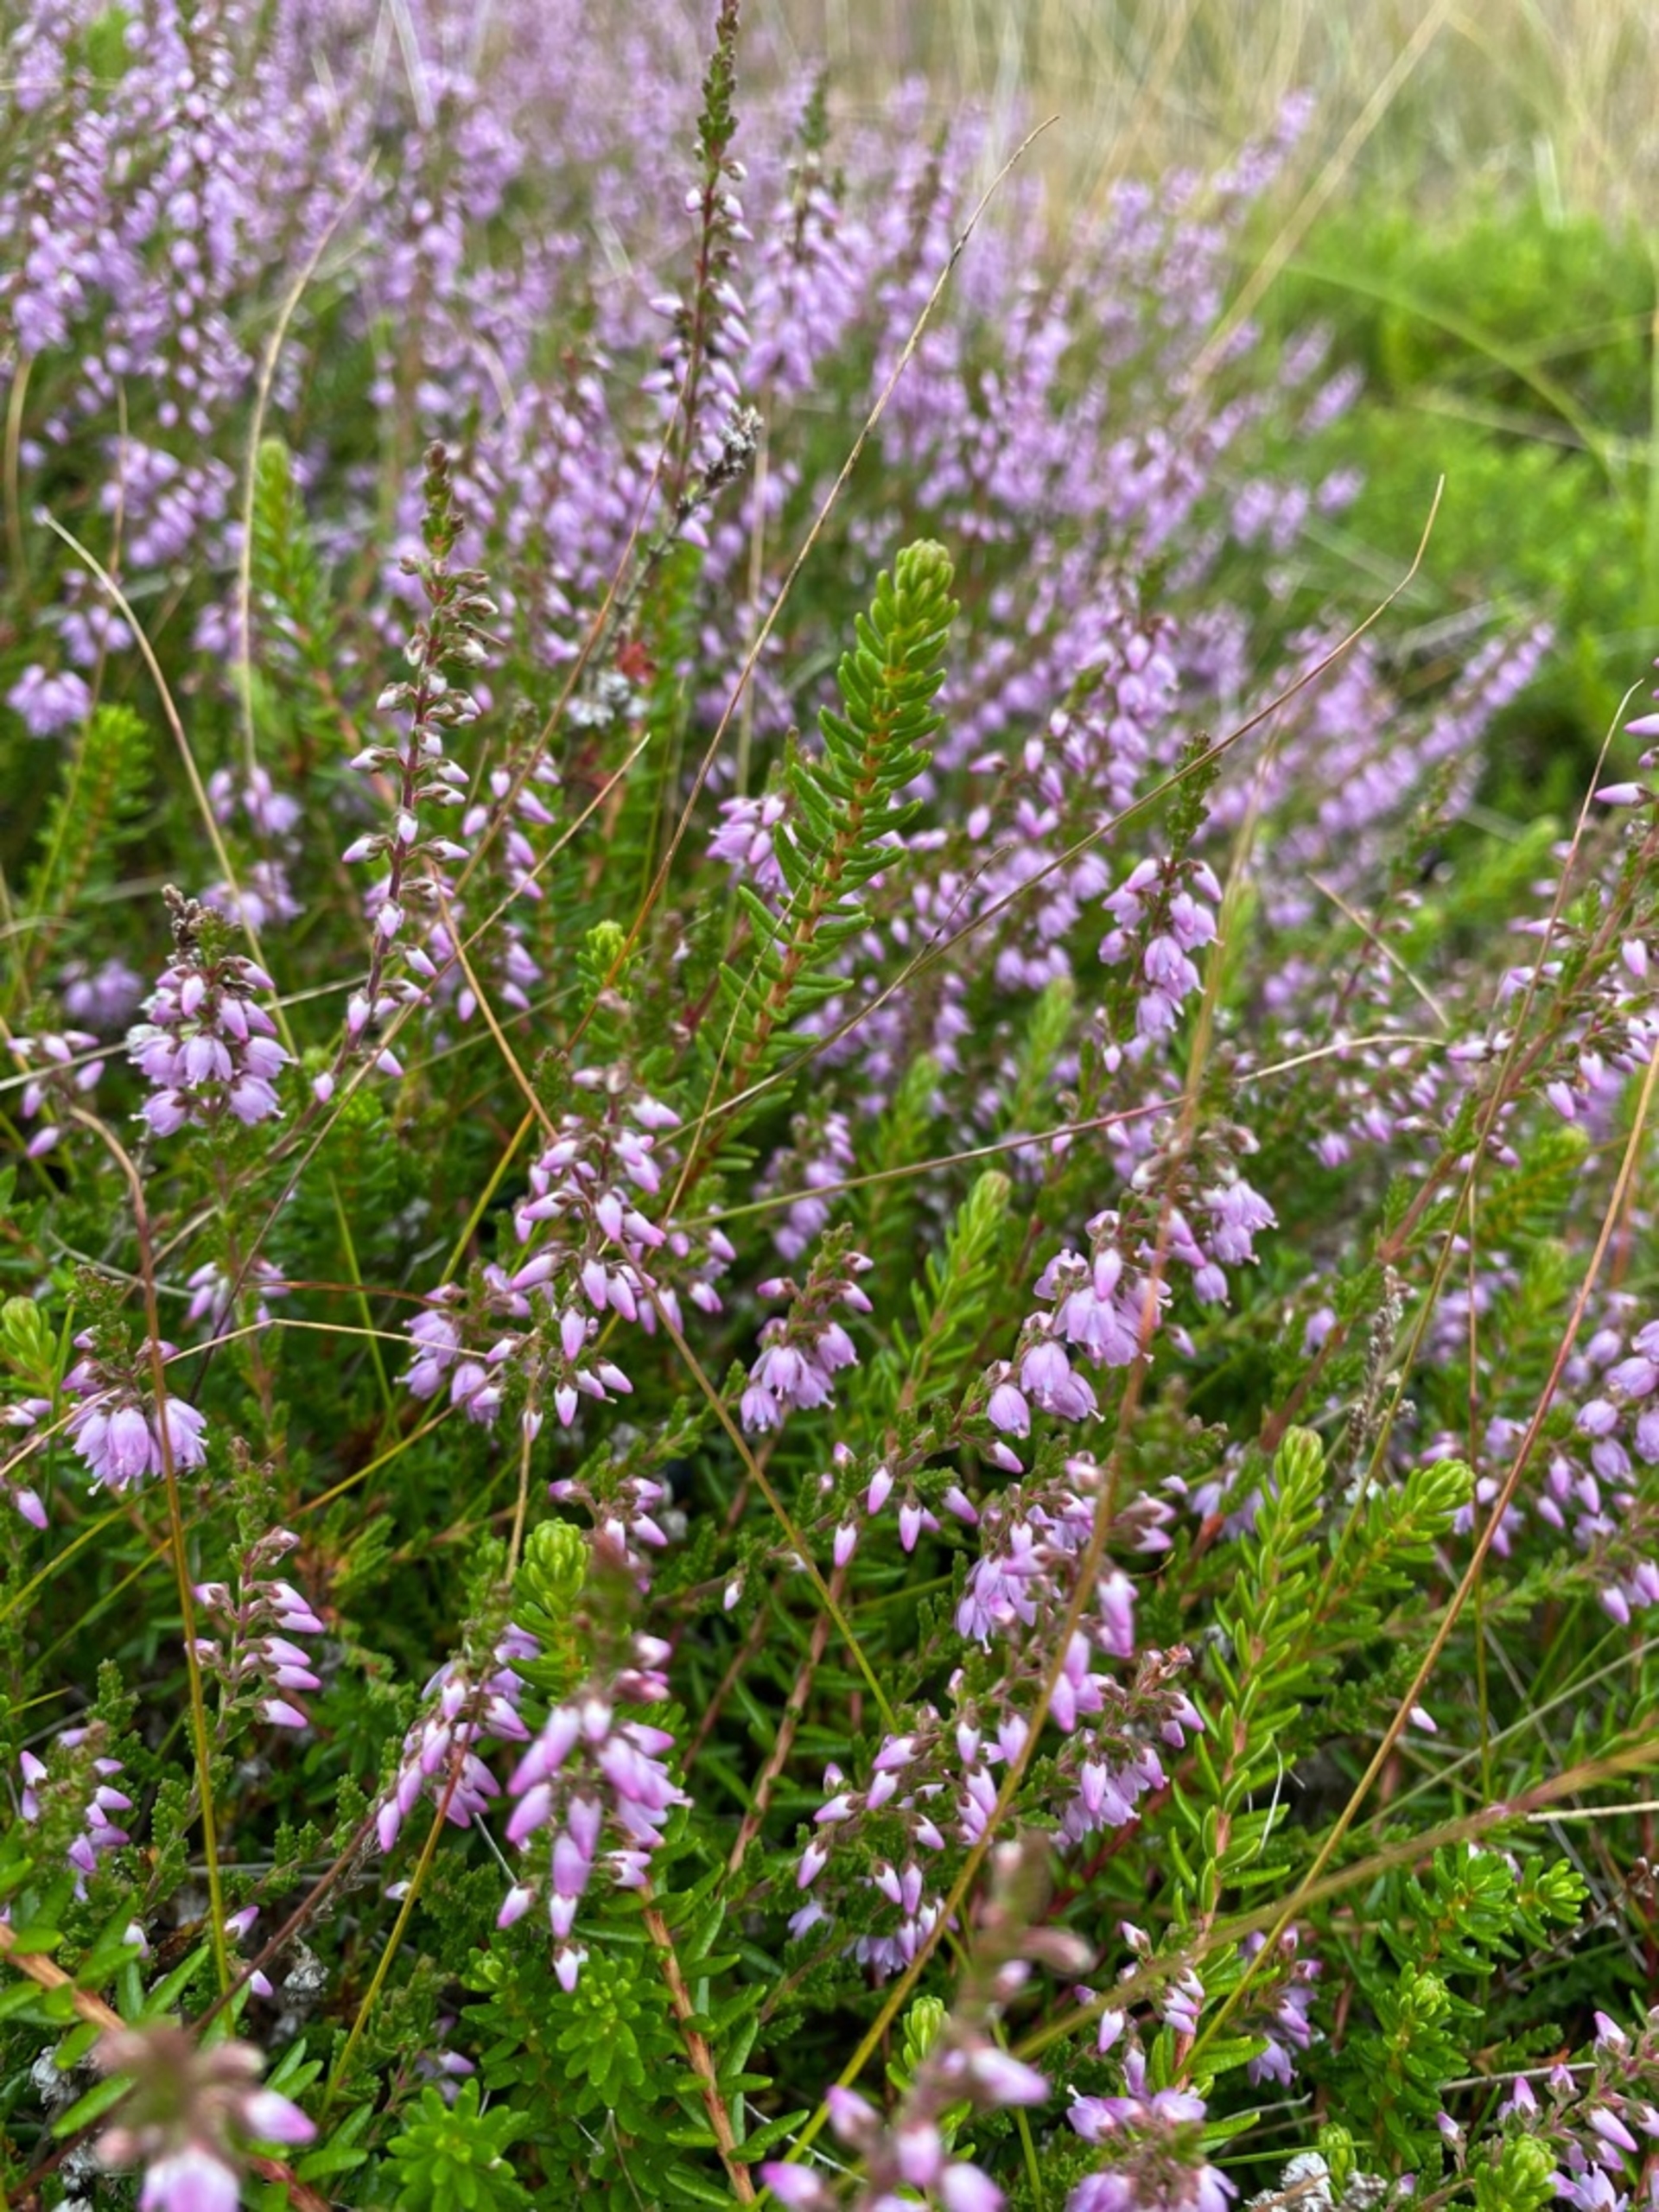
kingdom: Plantae
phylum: Tracheophyta
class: Magnoliopsida
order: Ericales
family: Ericaceae
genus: Calluna
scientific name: Calluna vulgaris
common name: Hedelyng
